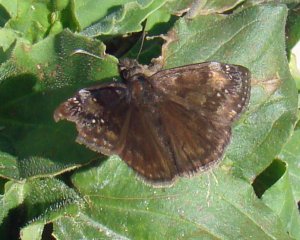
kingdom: Animalia
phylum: Arthropoda
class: Insecta
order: Lepidoptera
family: Hesperiidae
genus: Gesta
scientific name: Gesta
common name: Wild Indigo Duskywing
